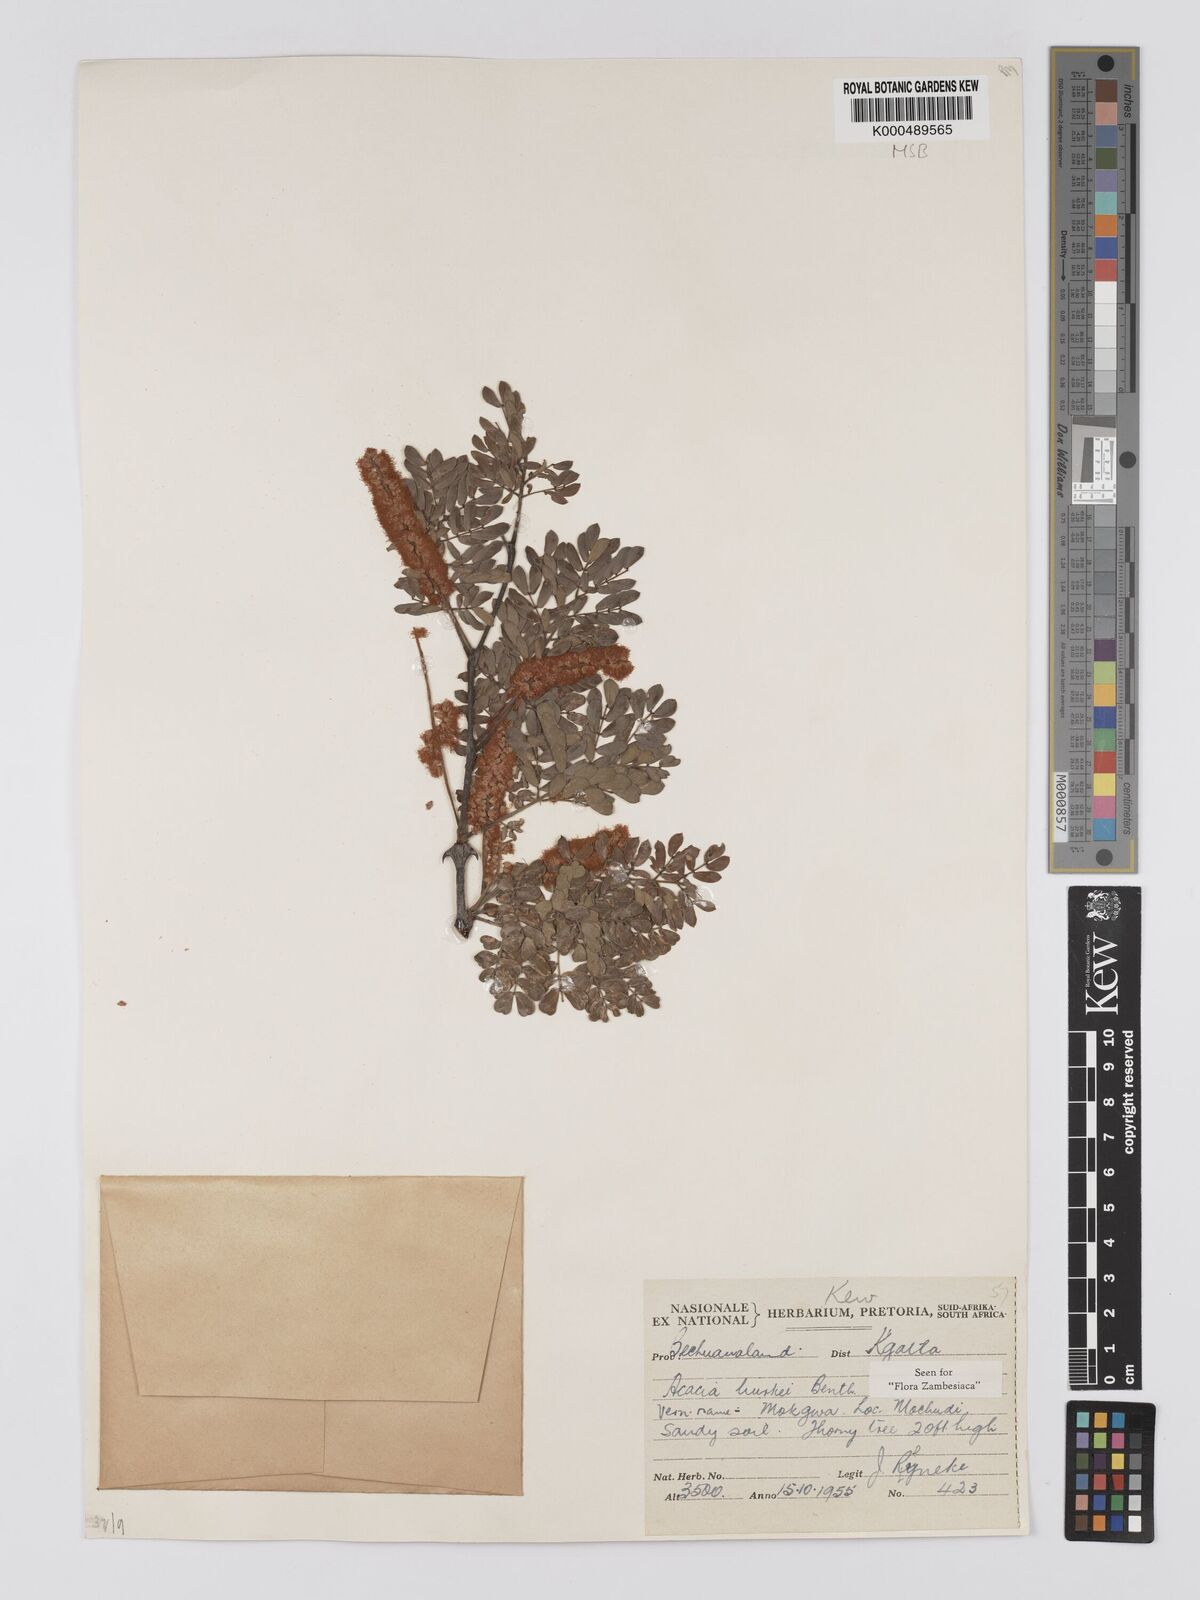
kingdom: Plantae
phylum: Tracheophyta
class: Magnoliopsida
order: Fabales
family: Fabaceae
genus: Senegalia
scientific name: Senegalia burkei
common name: Black monkey thorn
